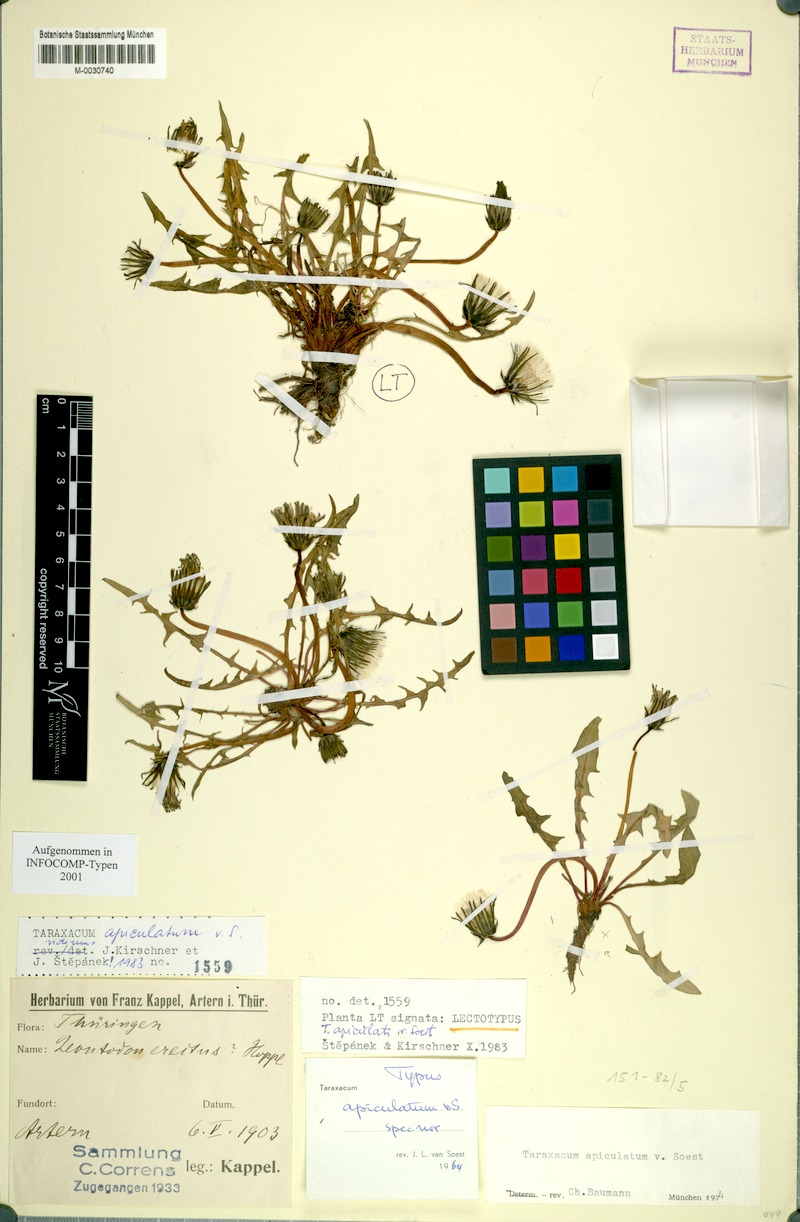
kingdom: Plantae
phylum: Tracheophyta
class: Magnoliopsida
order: Asterales
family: Asteraceae
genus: Taraxacum
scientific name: Taraxacum apiculatum
